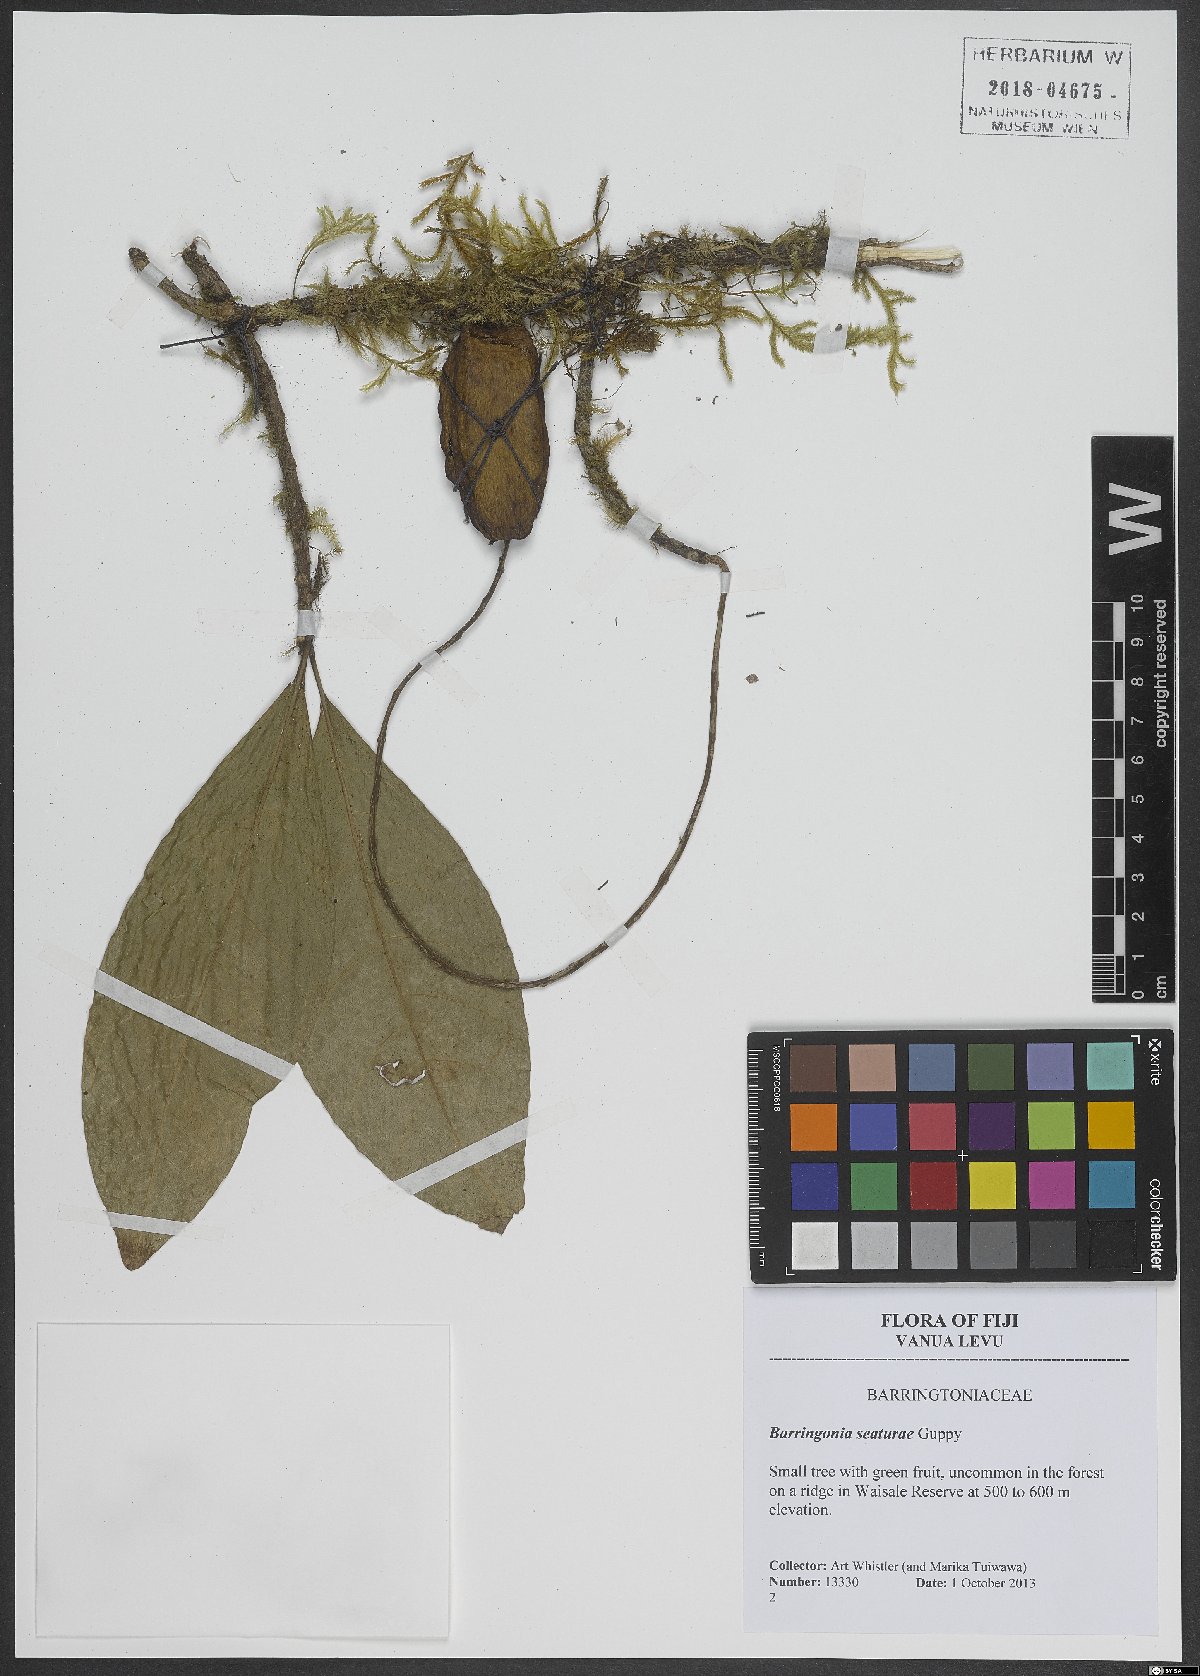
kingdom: Plantae
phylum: Tracheophyta
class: Magnoliopsida
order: Ericales
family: Lecythidaceae
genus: Barringtonia
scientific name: Barringtonia seaturae
